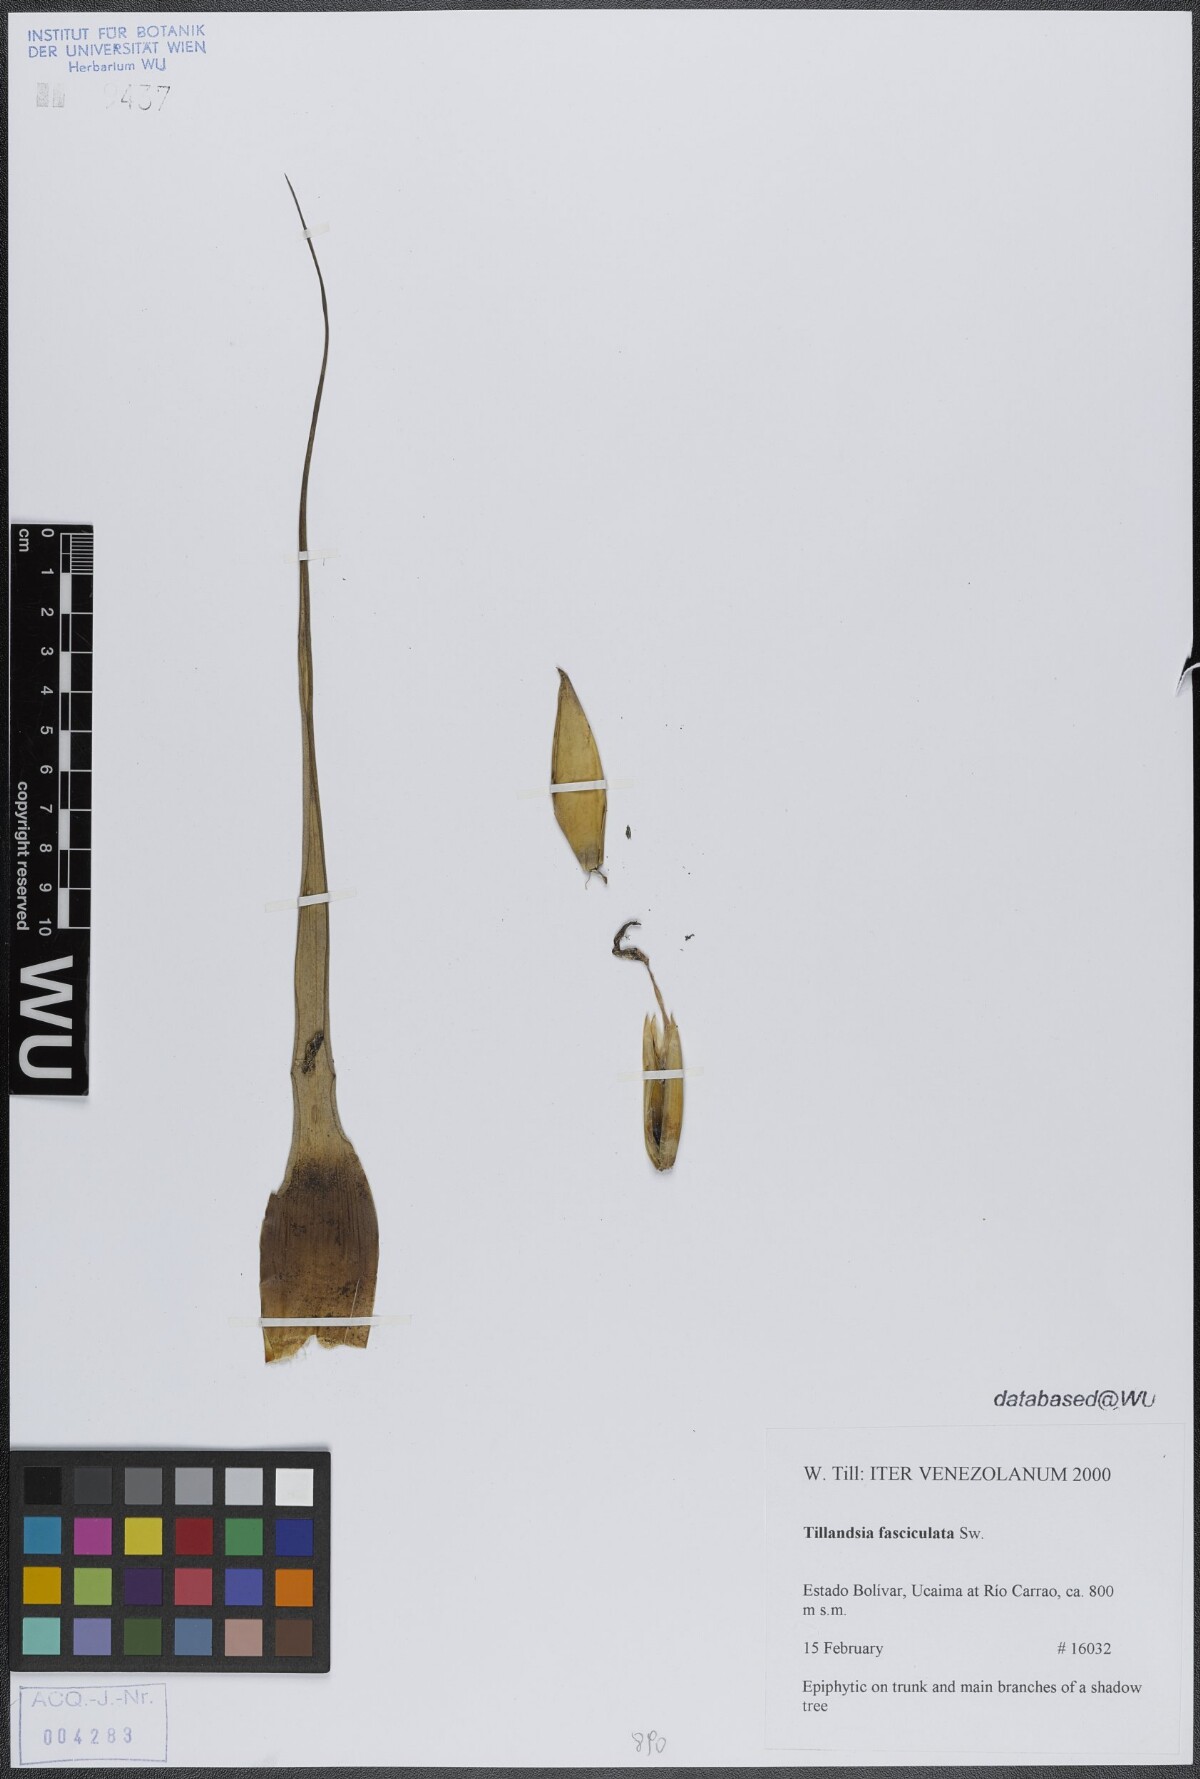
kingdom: Plantae
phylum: Tracheophyta
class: Liliopsida
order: Poales
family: Bromeliaceae
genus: Tillandsia
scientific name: Tillandsia fasciculata
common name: Giant airplant
